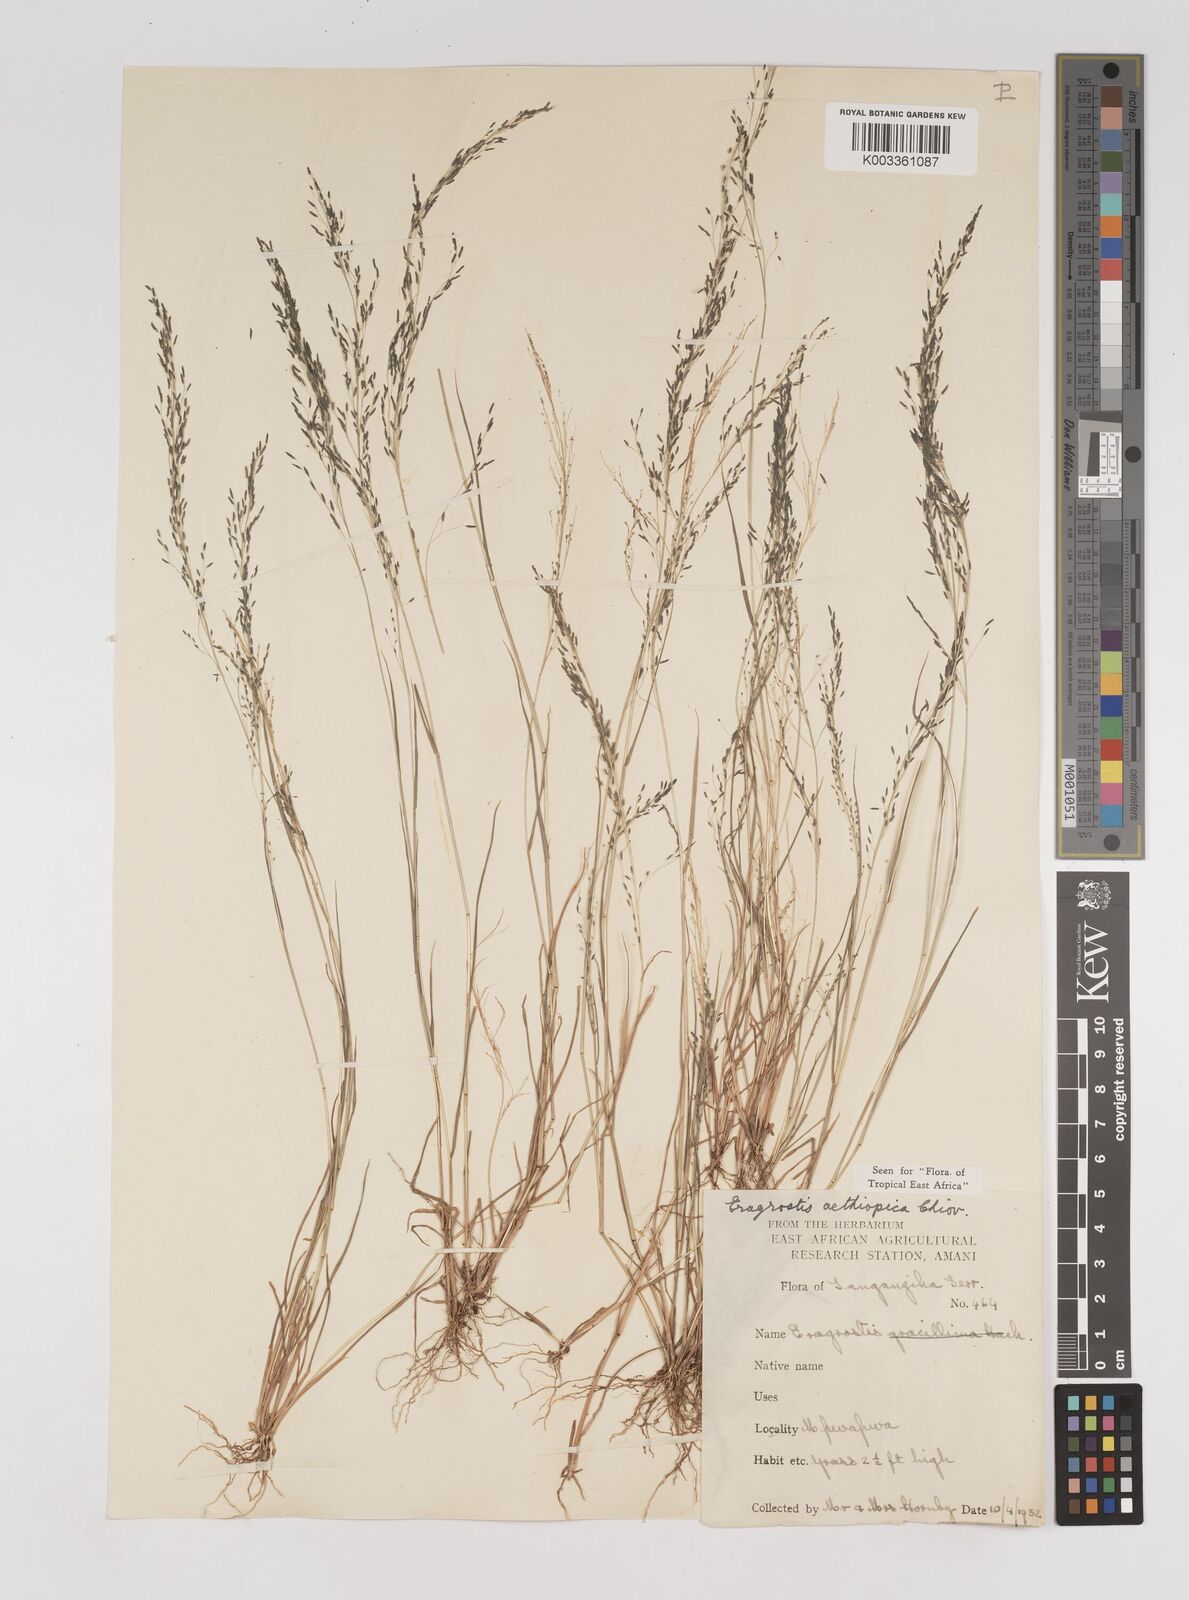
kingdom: Plantae
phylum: Tracheophyta
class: Liliopsida
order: Poales
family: Poaceae
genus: Eragrostis
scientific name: Eragrostis aethiopica
